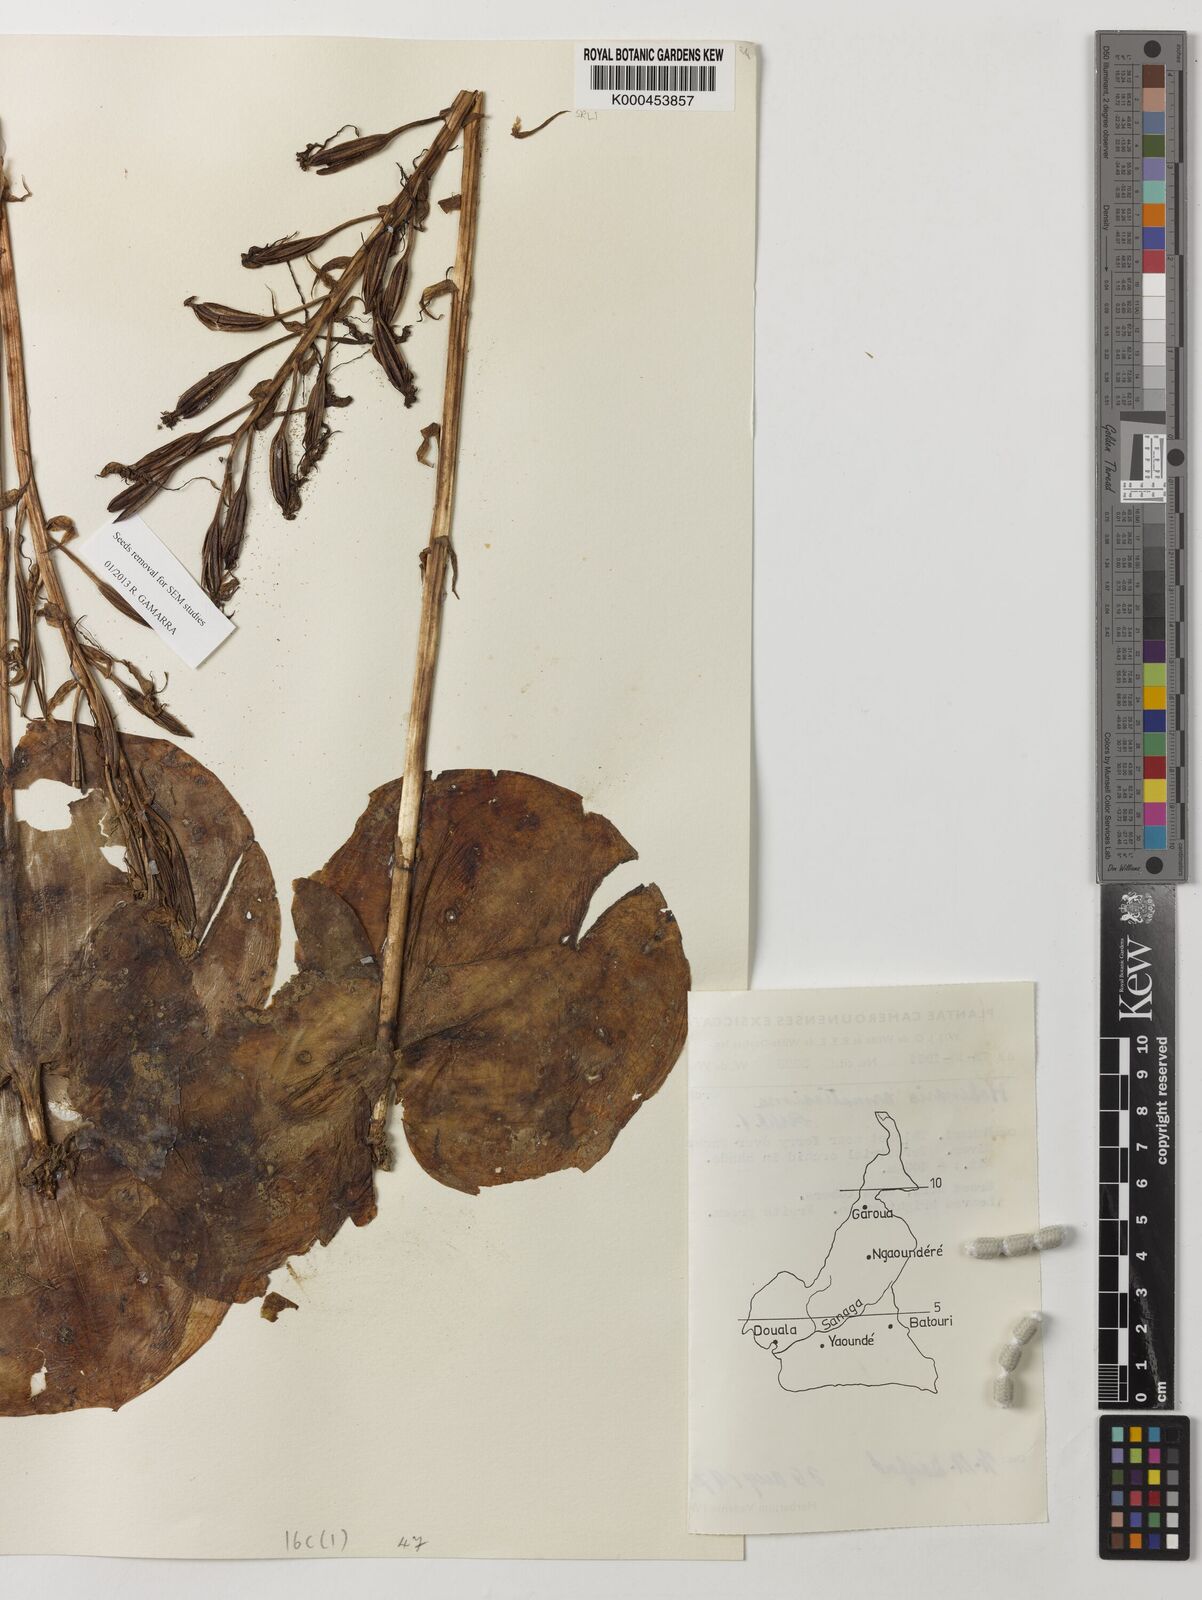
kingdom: Plantae
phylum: Tracheophyta
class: Liliopsida
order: Asparagales
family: Orchidaceae
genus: Habenaria
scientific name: Habenaria armatissima
